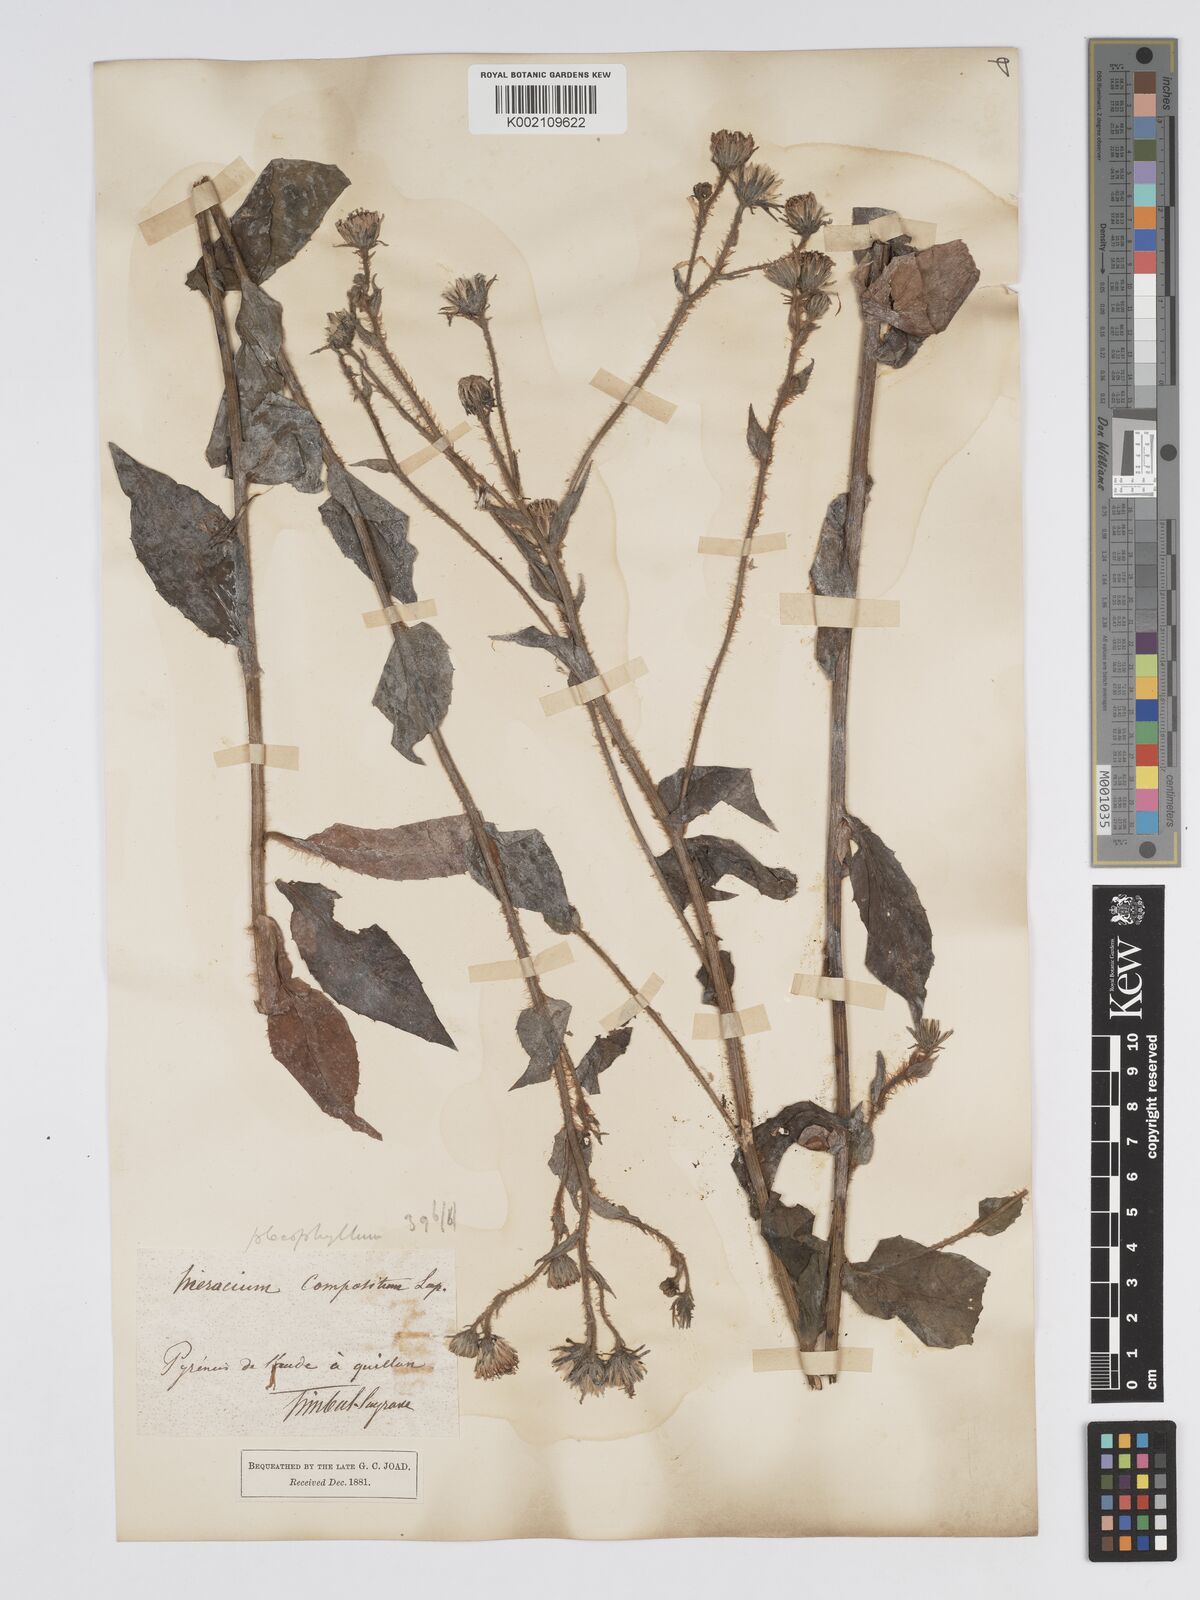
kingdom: Plantae
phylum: Tracheophyta
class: Magnoliopsida
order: Asterales
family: Asteraceae
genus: Hieracium
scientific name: Hieracium compositum
